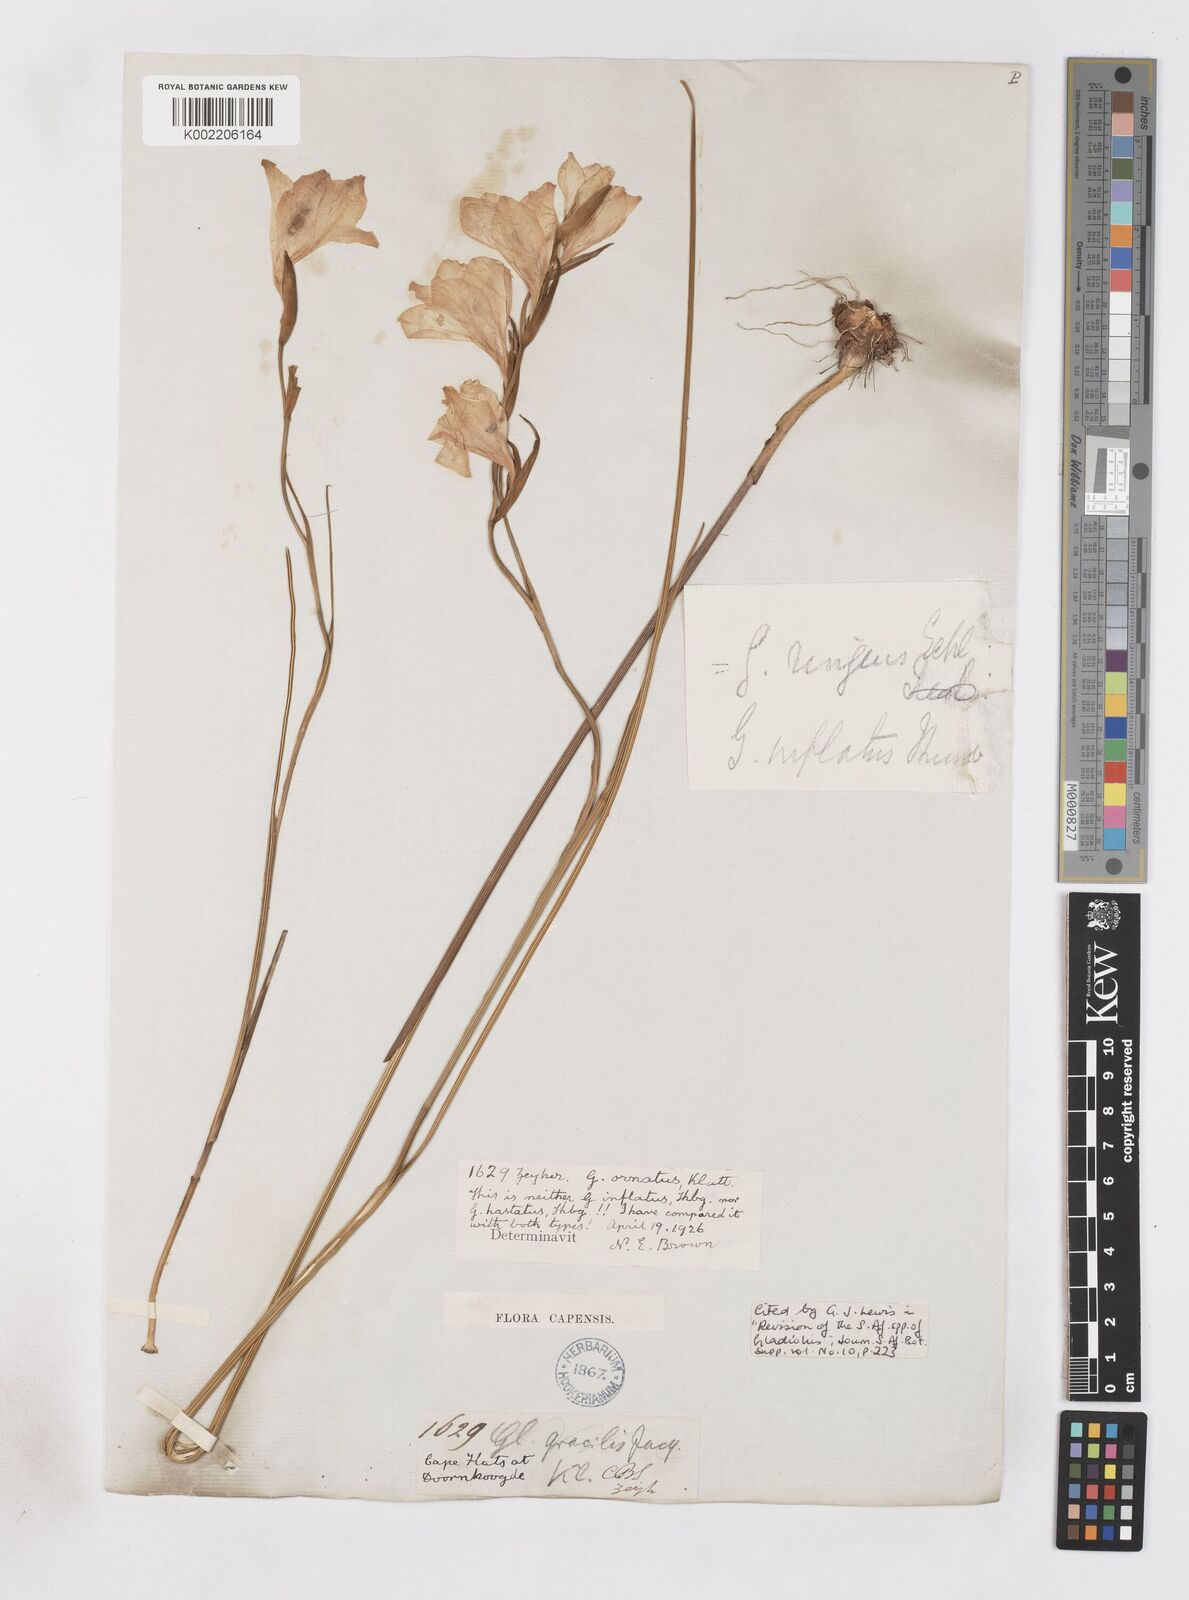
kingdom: Plantae
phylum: Tracheophyta
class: Liliopsida
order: Asparagales
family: Iridaceae
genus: Gladiolus
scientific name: Gladiolus ornatus
